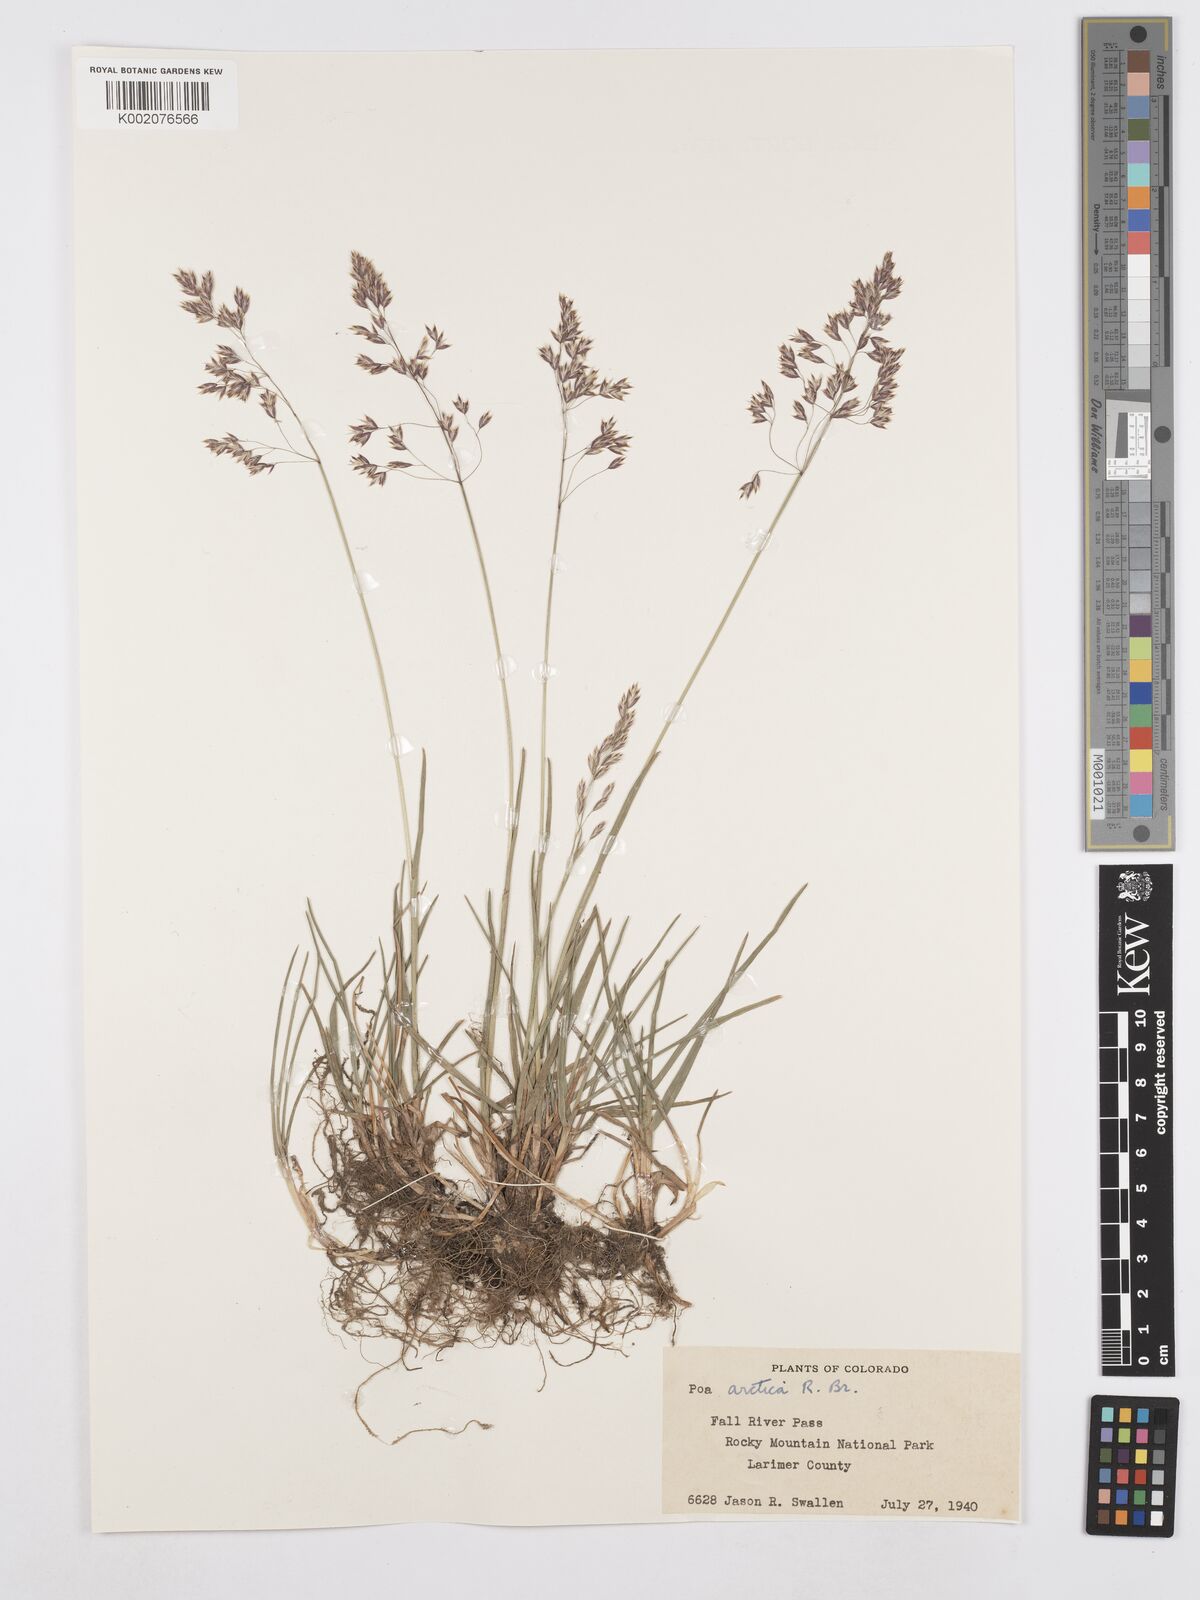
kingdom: Plantae
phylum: Tracheophyta
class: Liliopsida
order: Poales
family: Poaceae
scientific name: Poaceae
